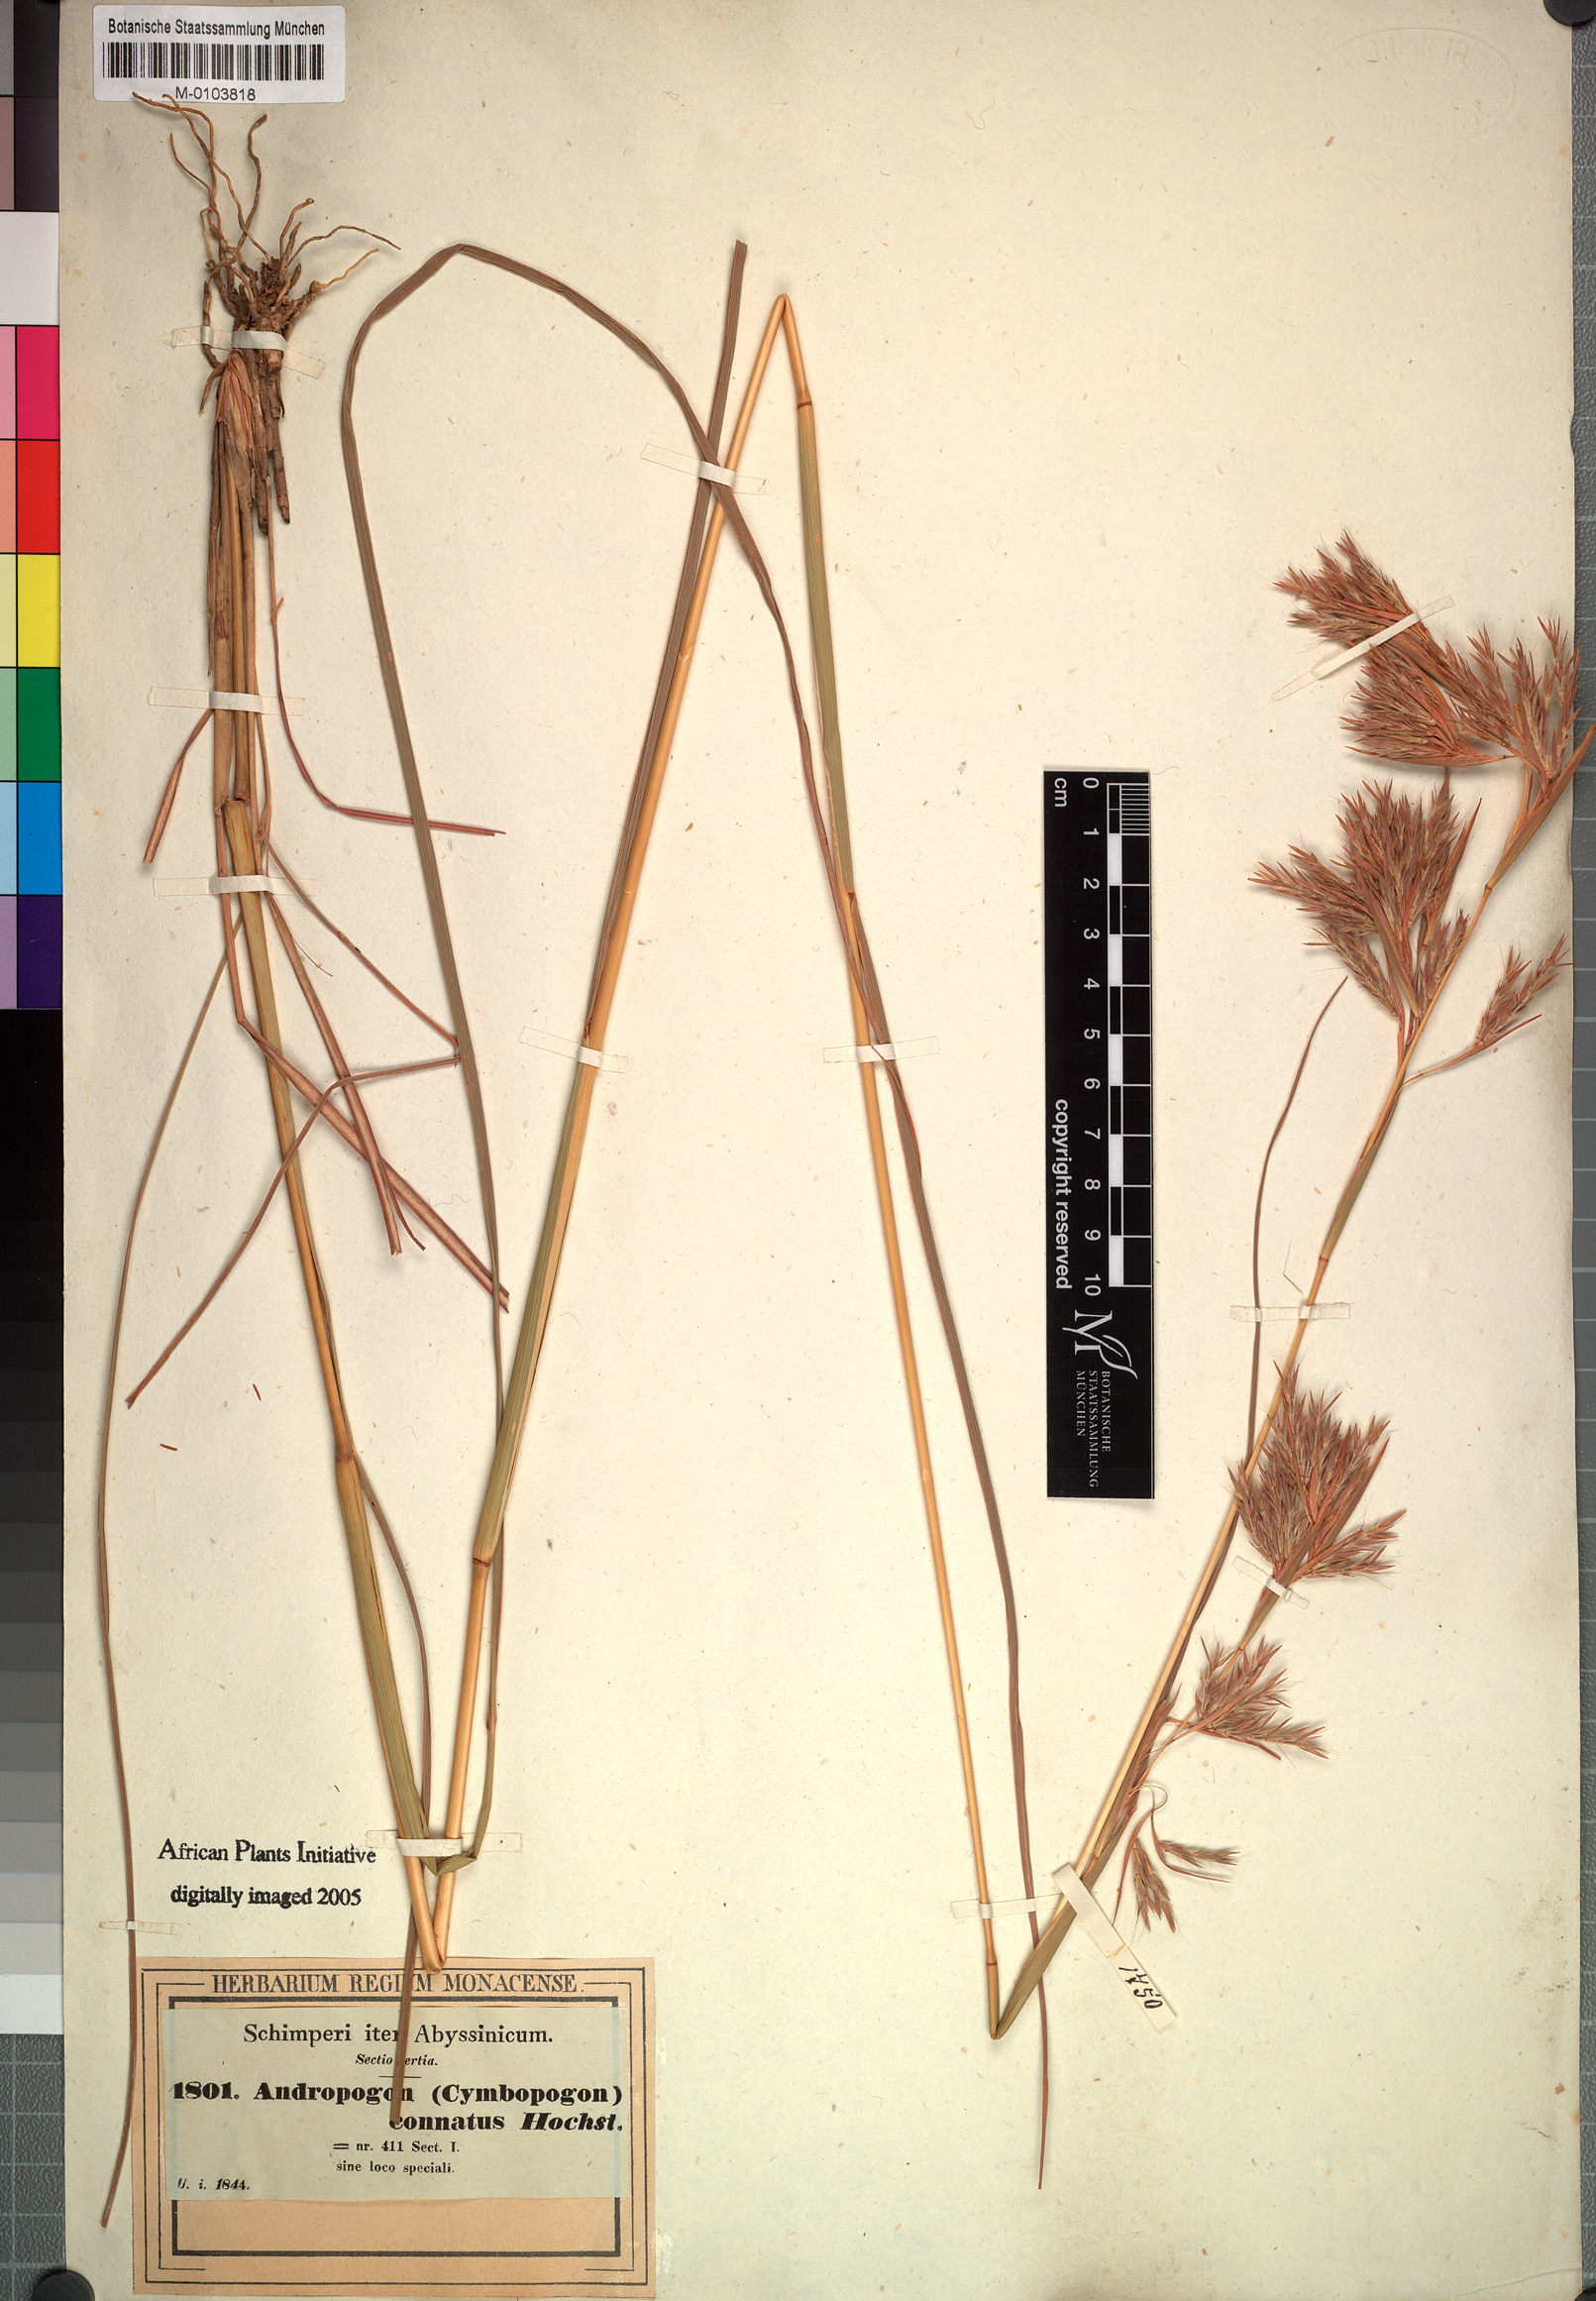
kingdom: Plantae
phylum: Tracheophyta
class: Liliopsida
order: Poales
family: Poaceae
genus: Cymbopogon
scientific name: Cymbopogon commutatus
